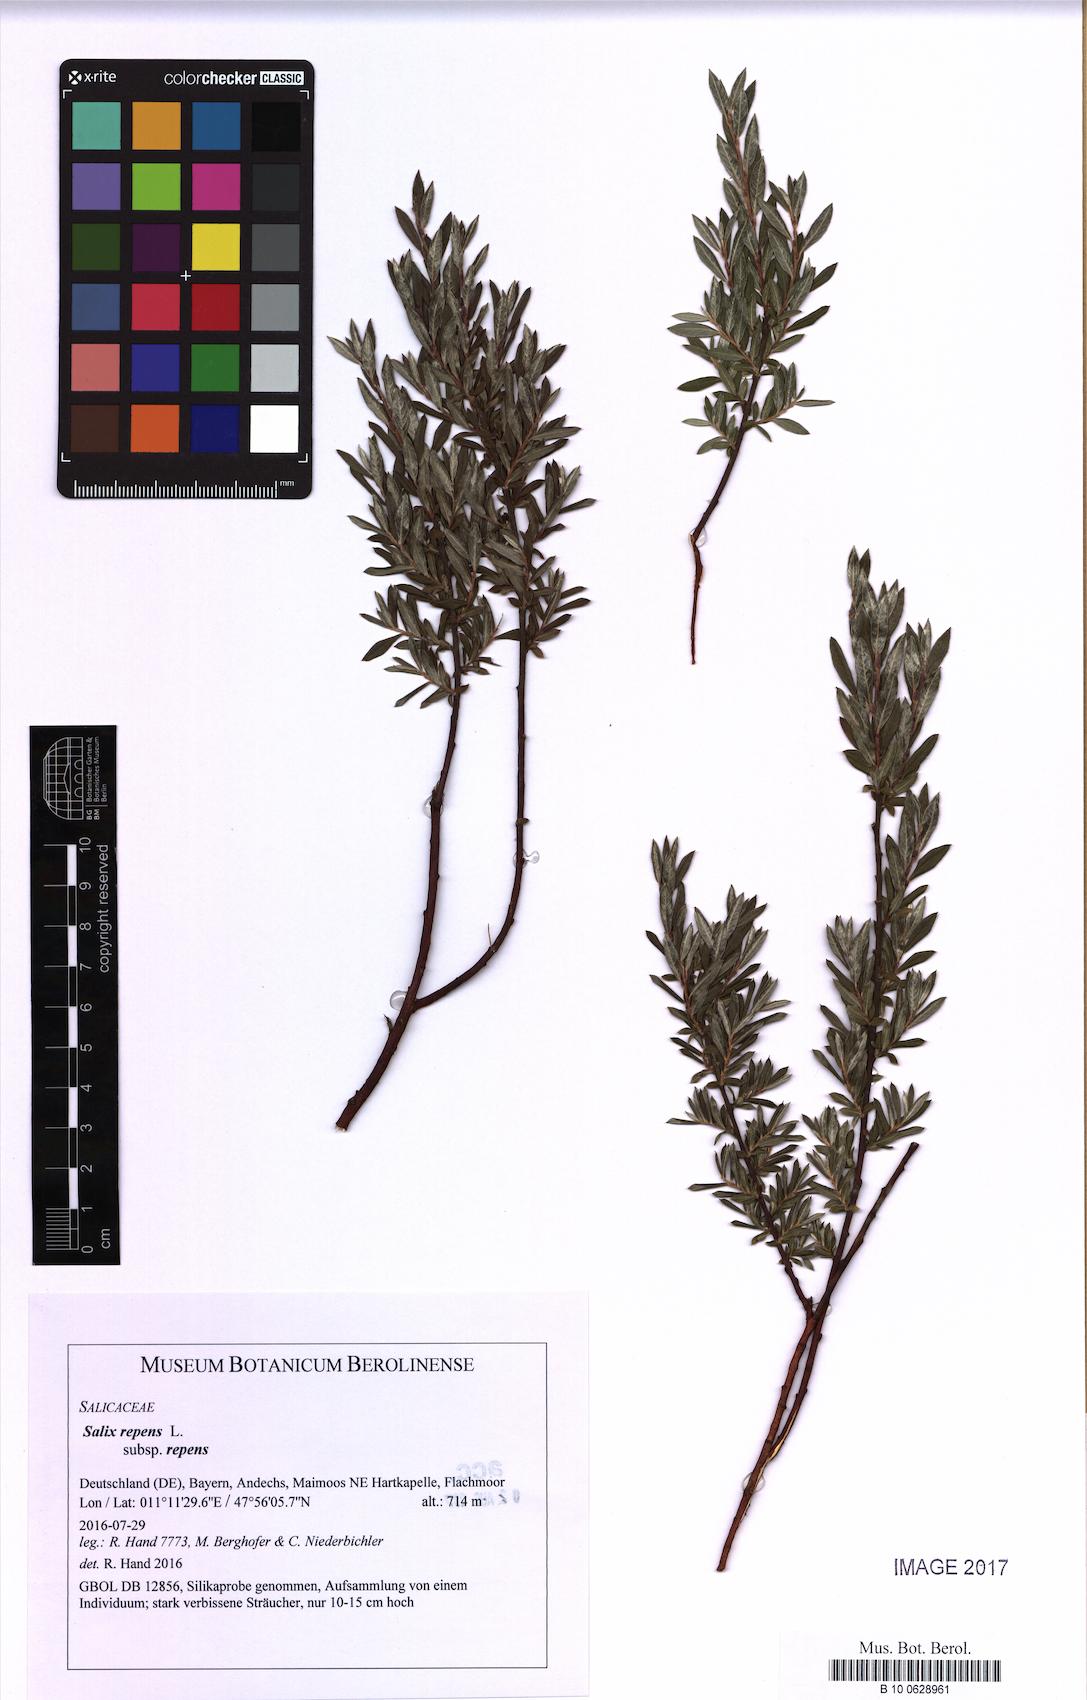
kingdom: Plantae
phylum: Tracheophyta
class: Magnoliopsida
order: Malpighiales
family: Salicaceae
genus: Salix
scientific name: Salix repens
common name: Creeping willow
